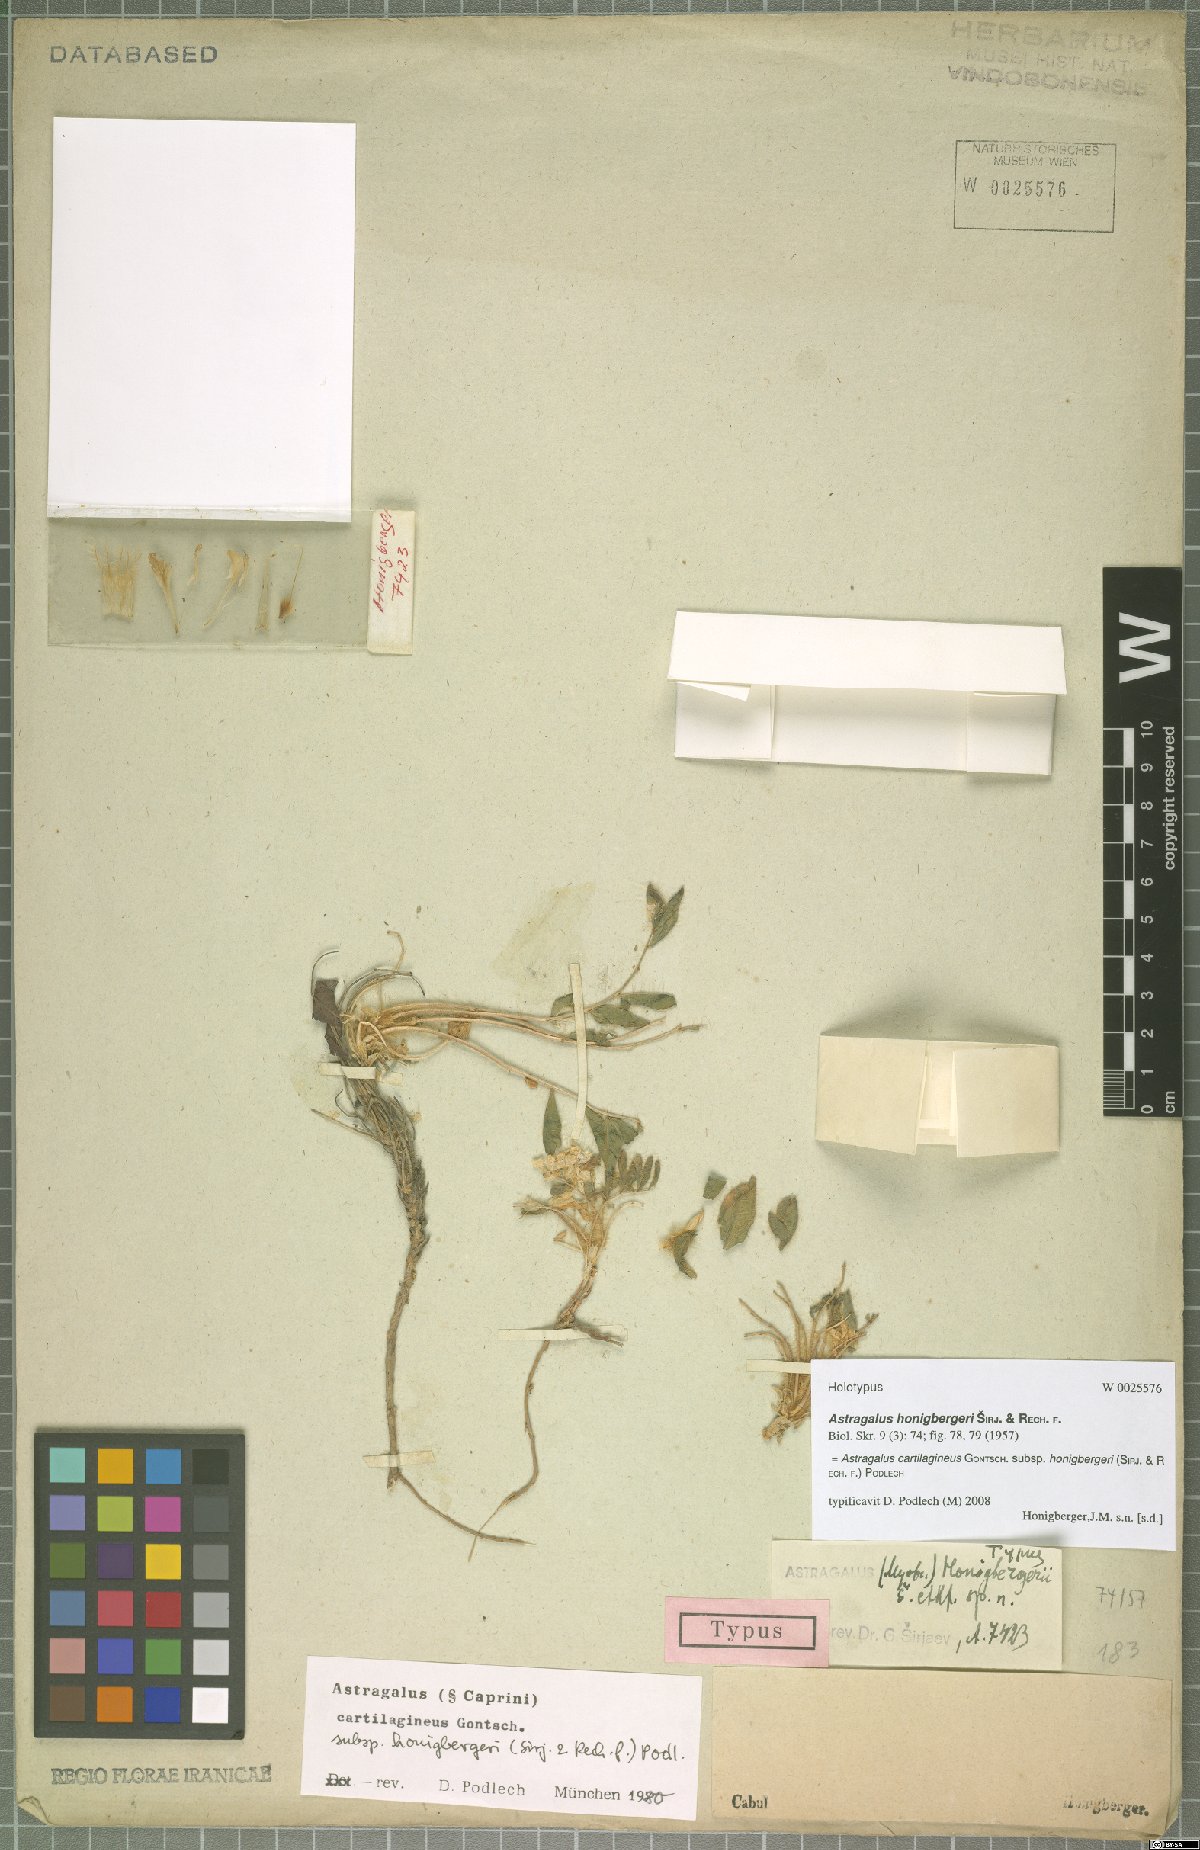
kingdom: Plantae
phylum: Tracheophyta
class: Magnoliopsida
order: Fabales
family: Fabaceae
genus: Astragalus
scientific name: Astragalus cartilagineus
